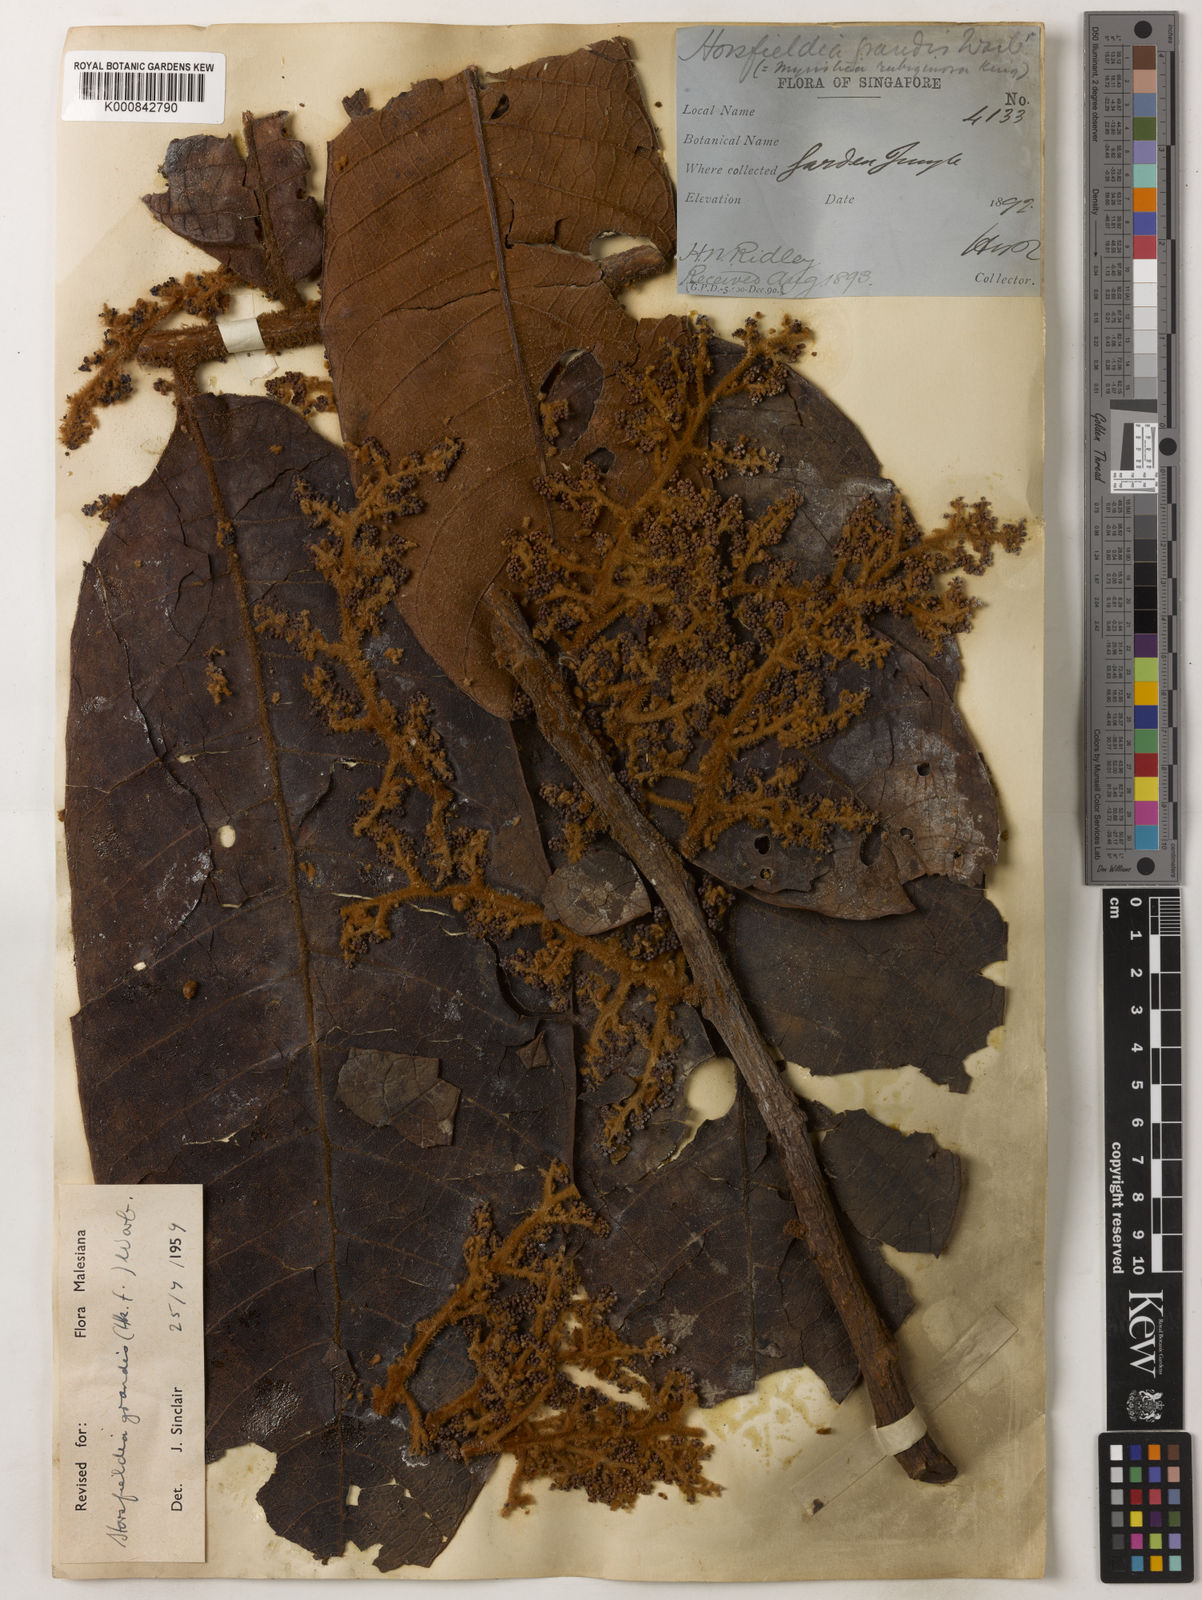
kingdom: Plantae
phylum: Tracheophyta
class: Magnoliopsida
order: Magnoliales
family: Myristicaceae
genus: Horsfieldia
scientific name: Horsfieldia grandis
